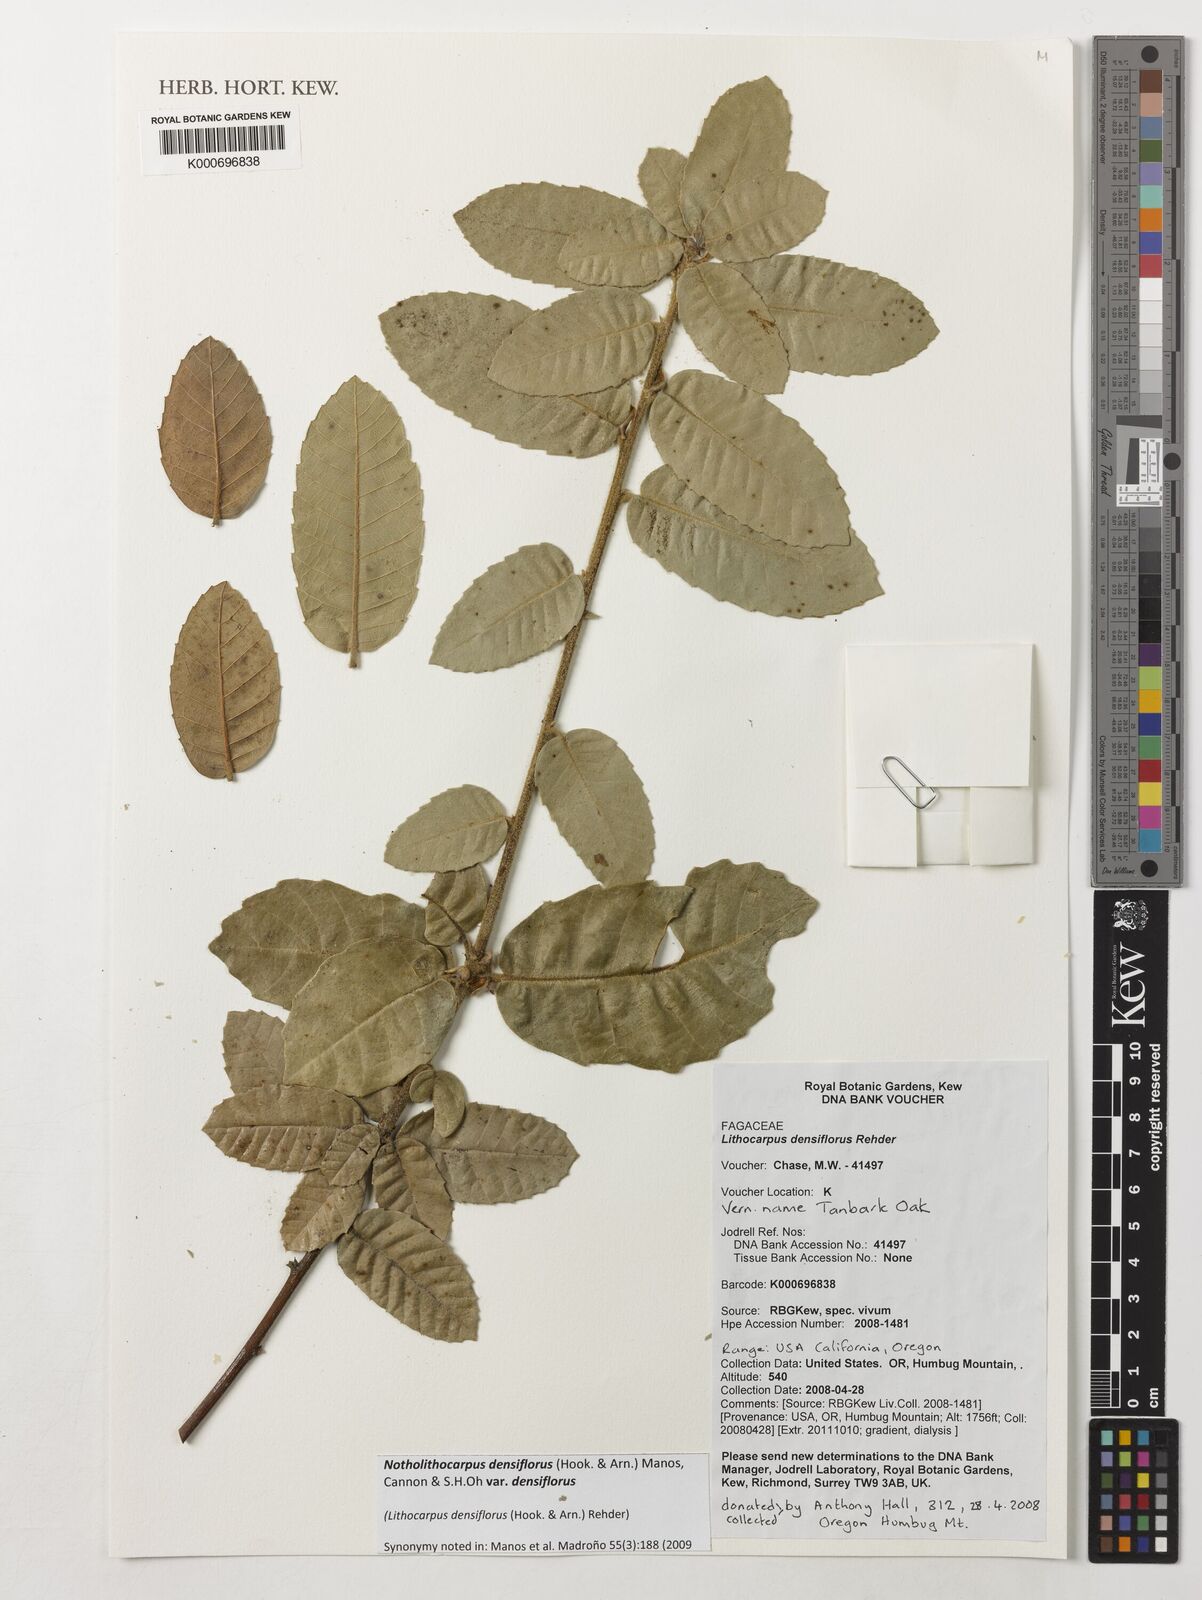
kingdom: Plantae
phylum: Tracheophyta
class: Magnoliopsida
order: Fagales
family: Fagaceae
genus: Notholithocarpus
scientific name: Notholithocarpus densiflorus
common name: Tan bark oak
